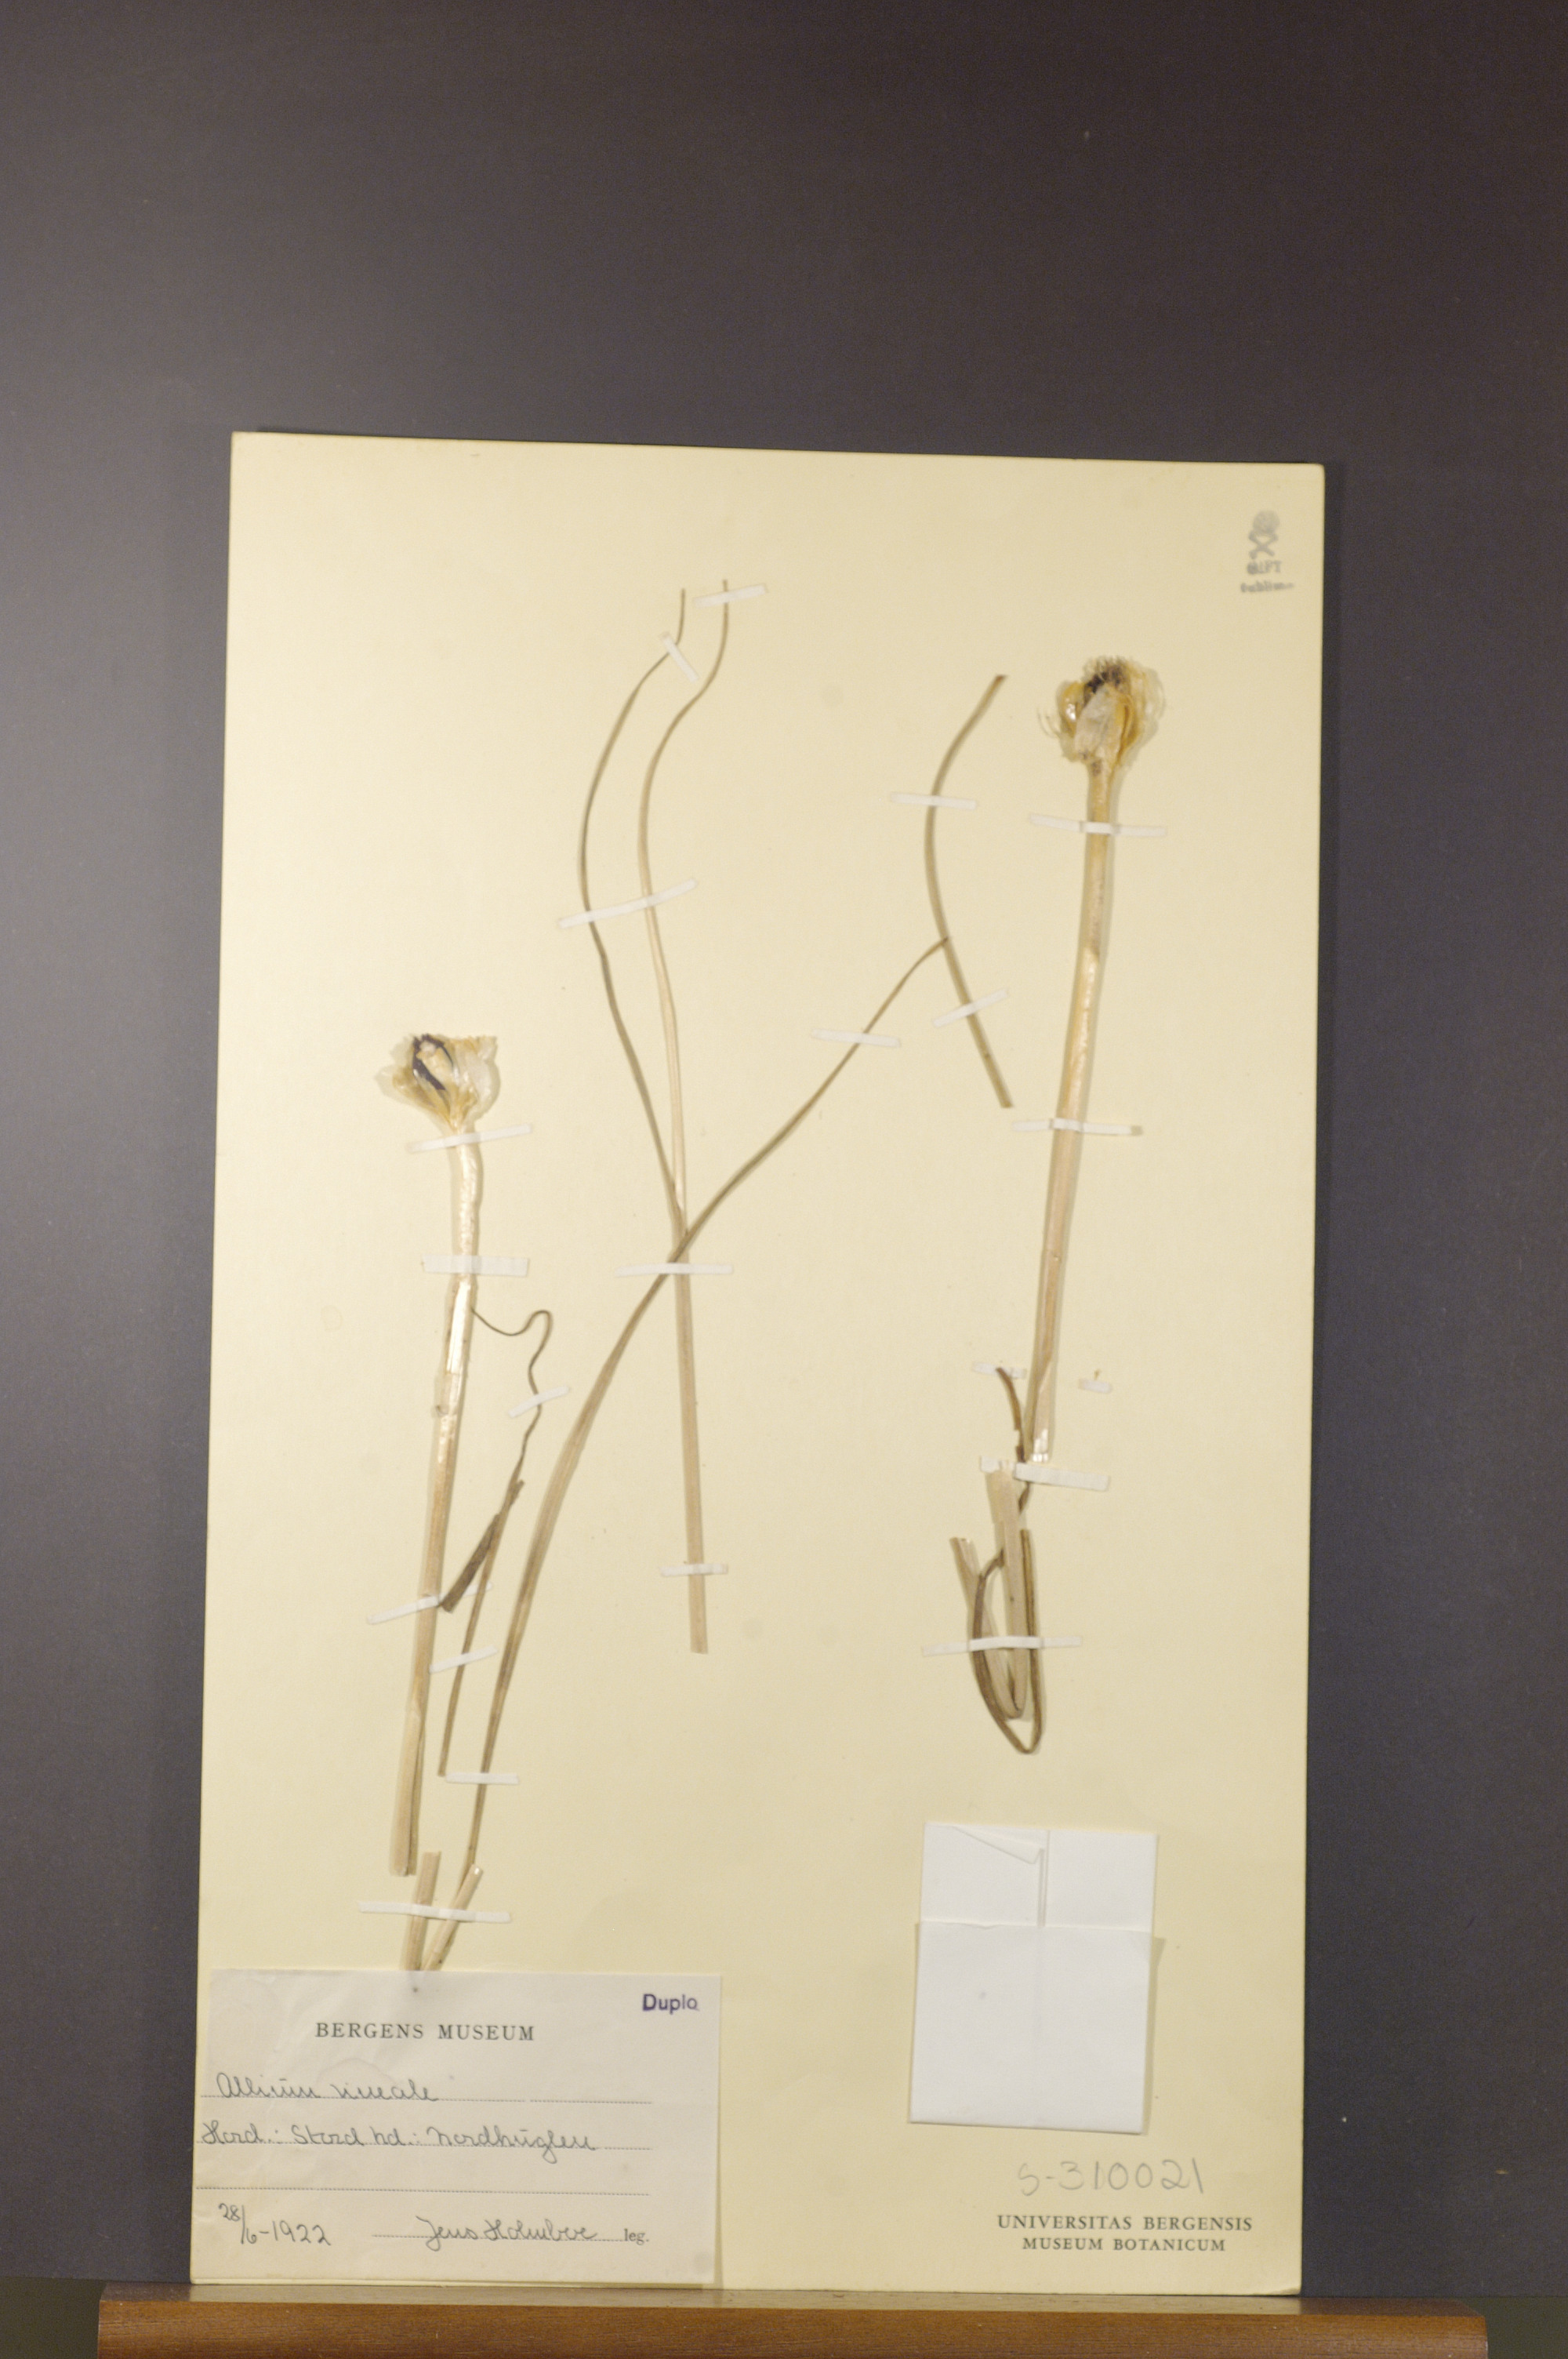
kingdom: Plantae
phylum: Tracheophyta
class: Liliopsida
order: Asparagales
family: Amaryllidaceae
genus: Allium
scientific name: Allium vineale
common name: Crow garlic
